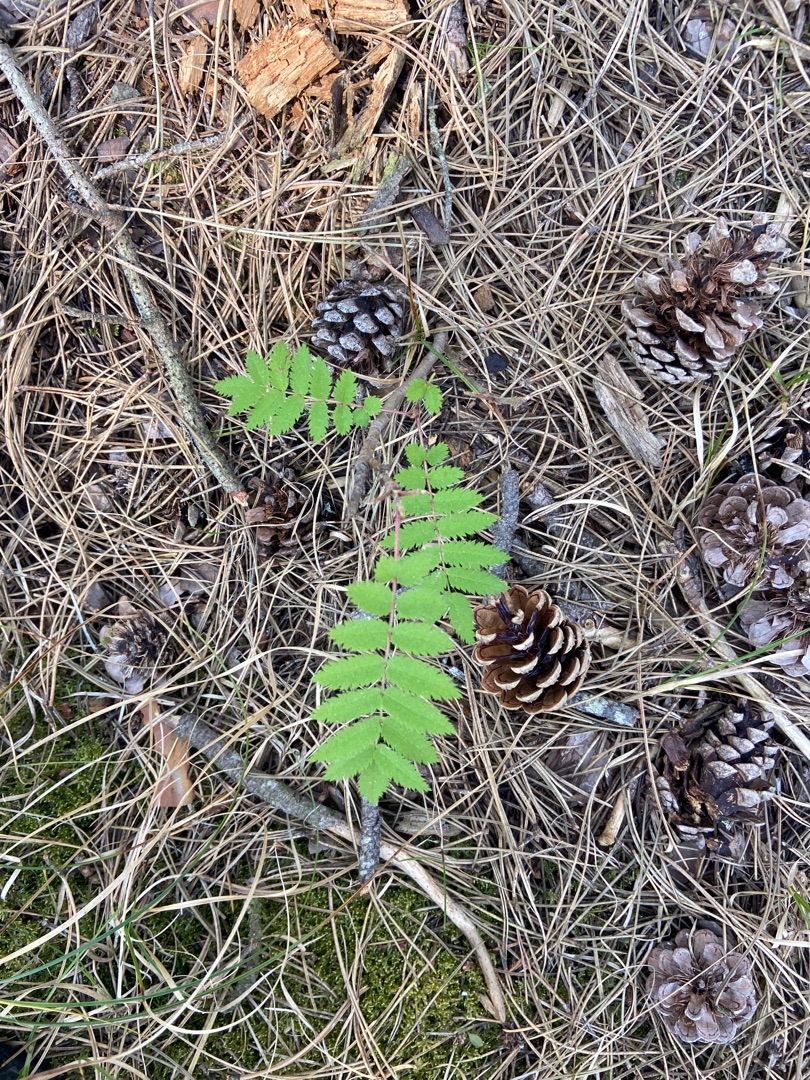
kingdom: Plantae
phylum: Tracheophyta
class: Magnoliopsida
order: Rosales
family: Rosaceae
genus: Sorbus
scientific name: Sorbus aucuparia
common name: Almindelig røn
